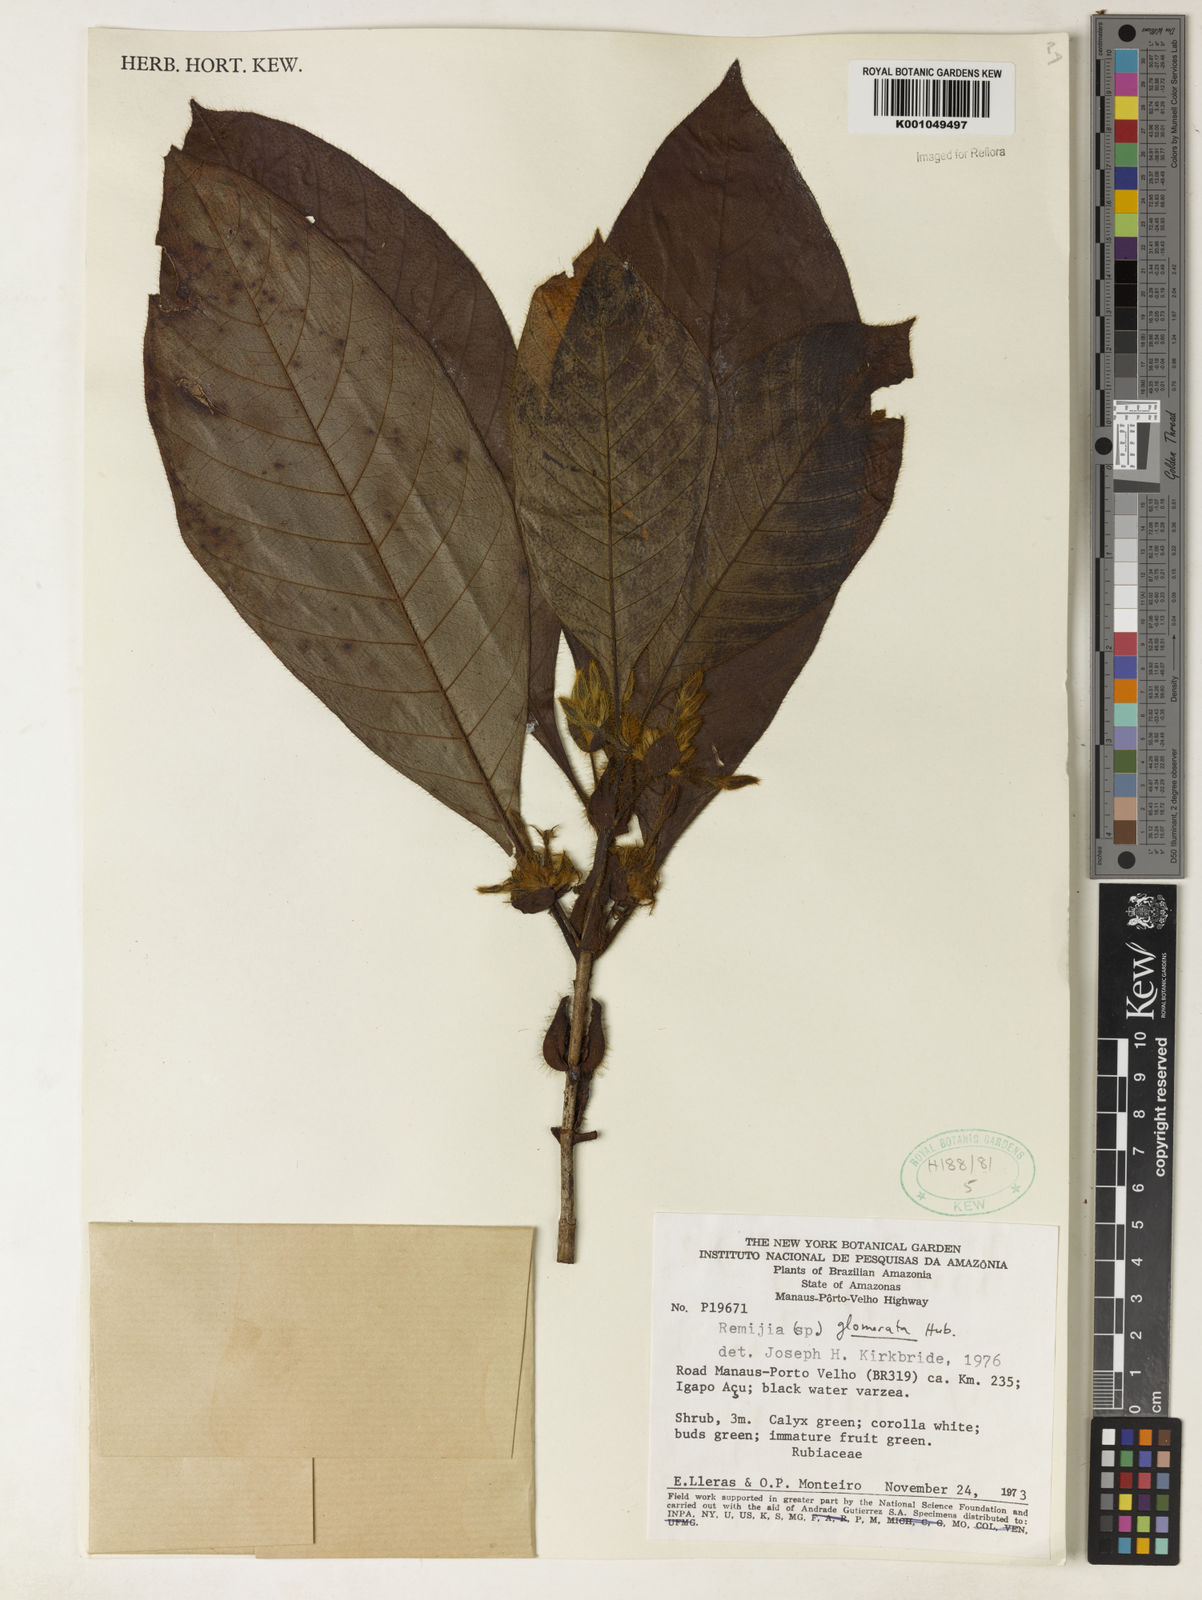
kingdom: Plantae
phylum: Tracheophyta
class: Magnoliopsida
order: Gentianales
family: Rubiaceae
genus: Remijia
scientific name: Remijia glomerata
